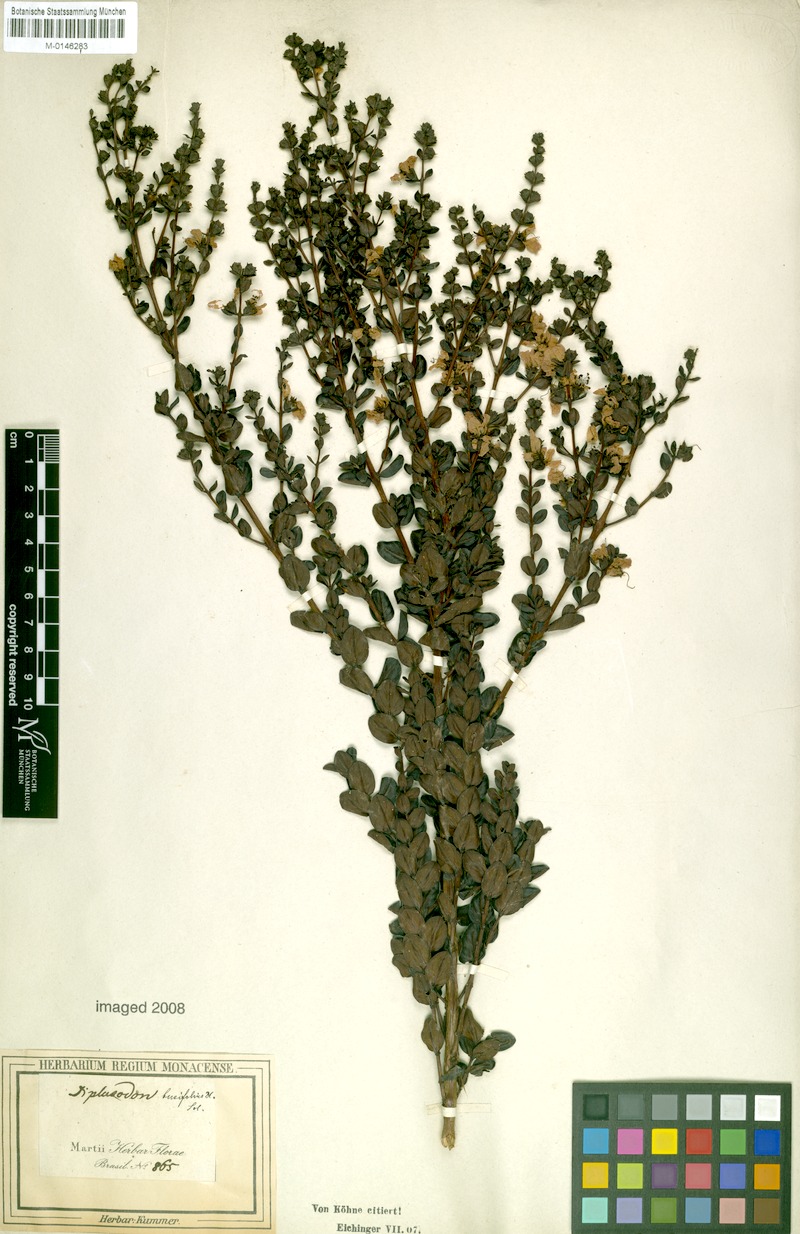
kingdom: Plantae
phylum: Tracheophyta
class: Magnoliopsida
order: Myrtales
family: Lythraceae
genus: Diplusodon
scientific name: Diplusodon buxifolius
